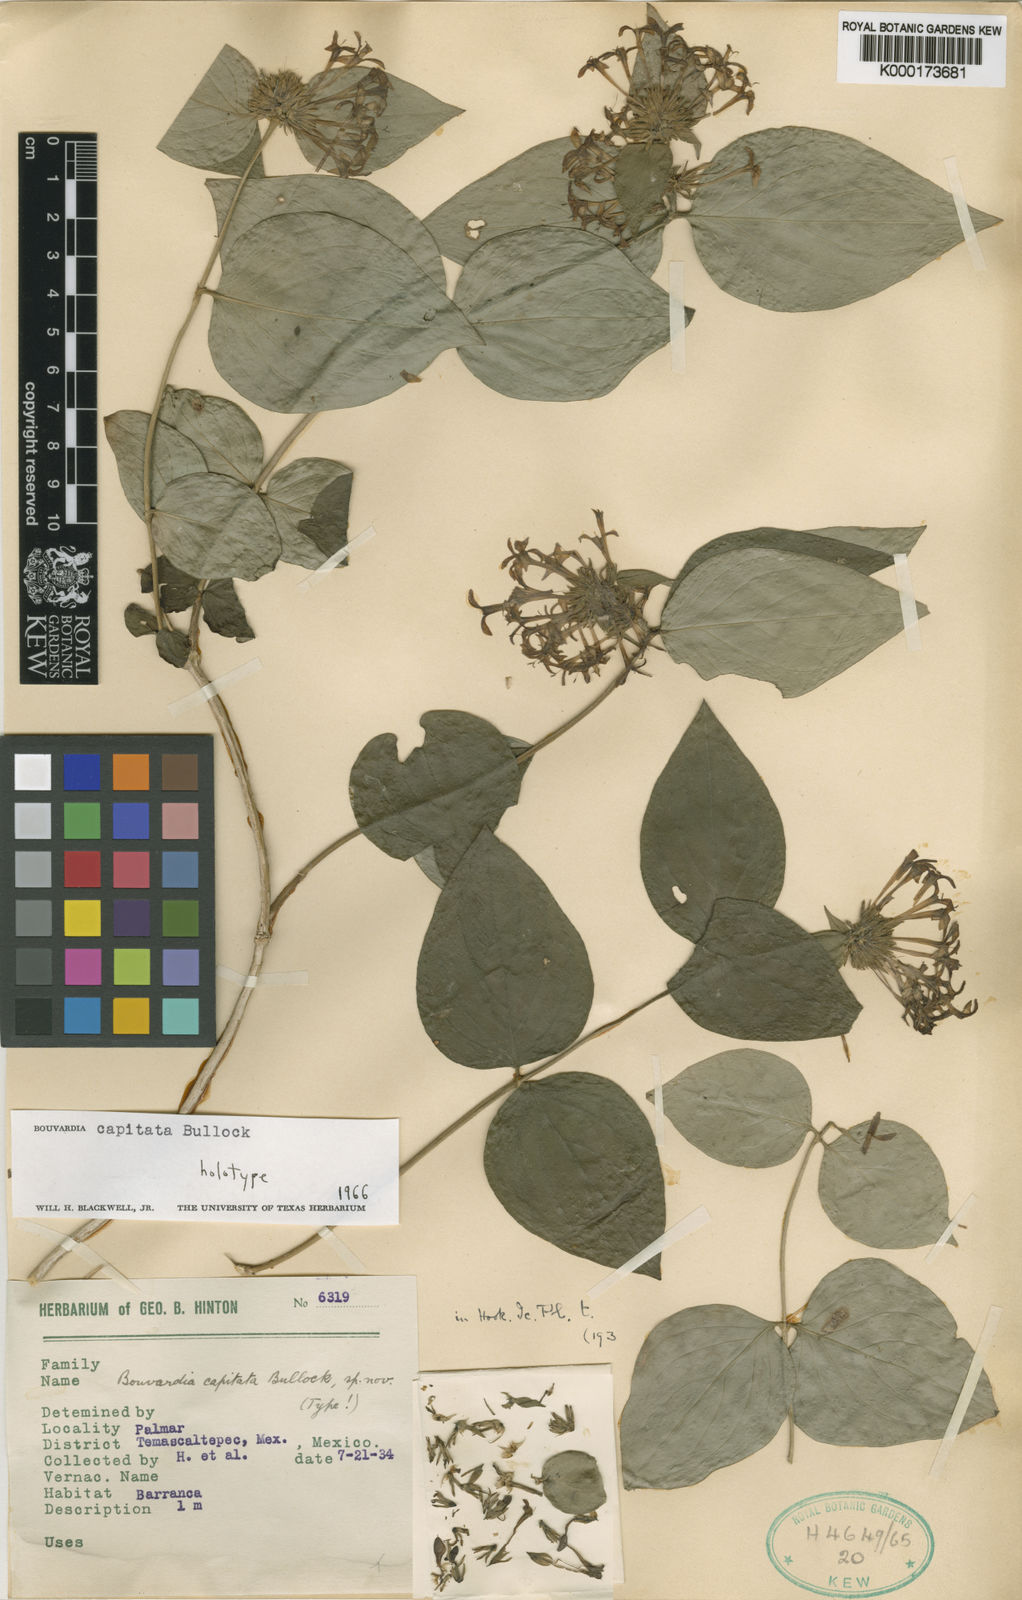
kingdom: Plantae
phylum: Tracheophyta
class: Magnoliopsida
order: Gentianales
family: Rubiaceae
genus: Bouvardia
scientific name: Bouvardia capitata
